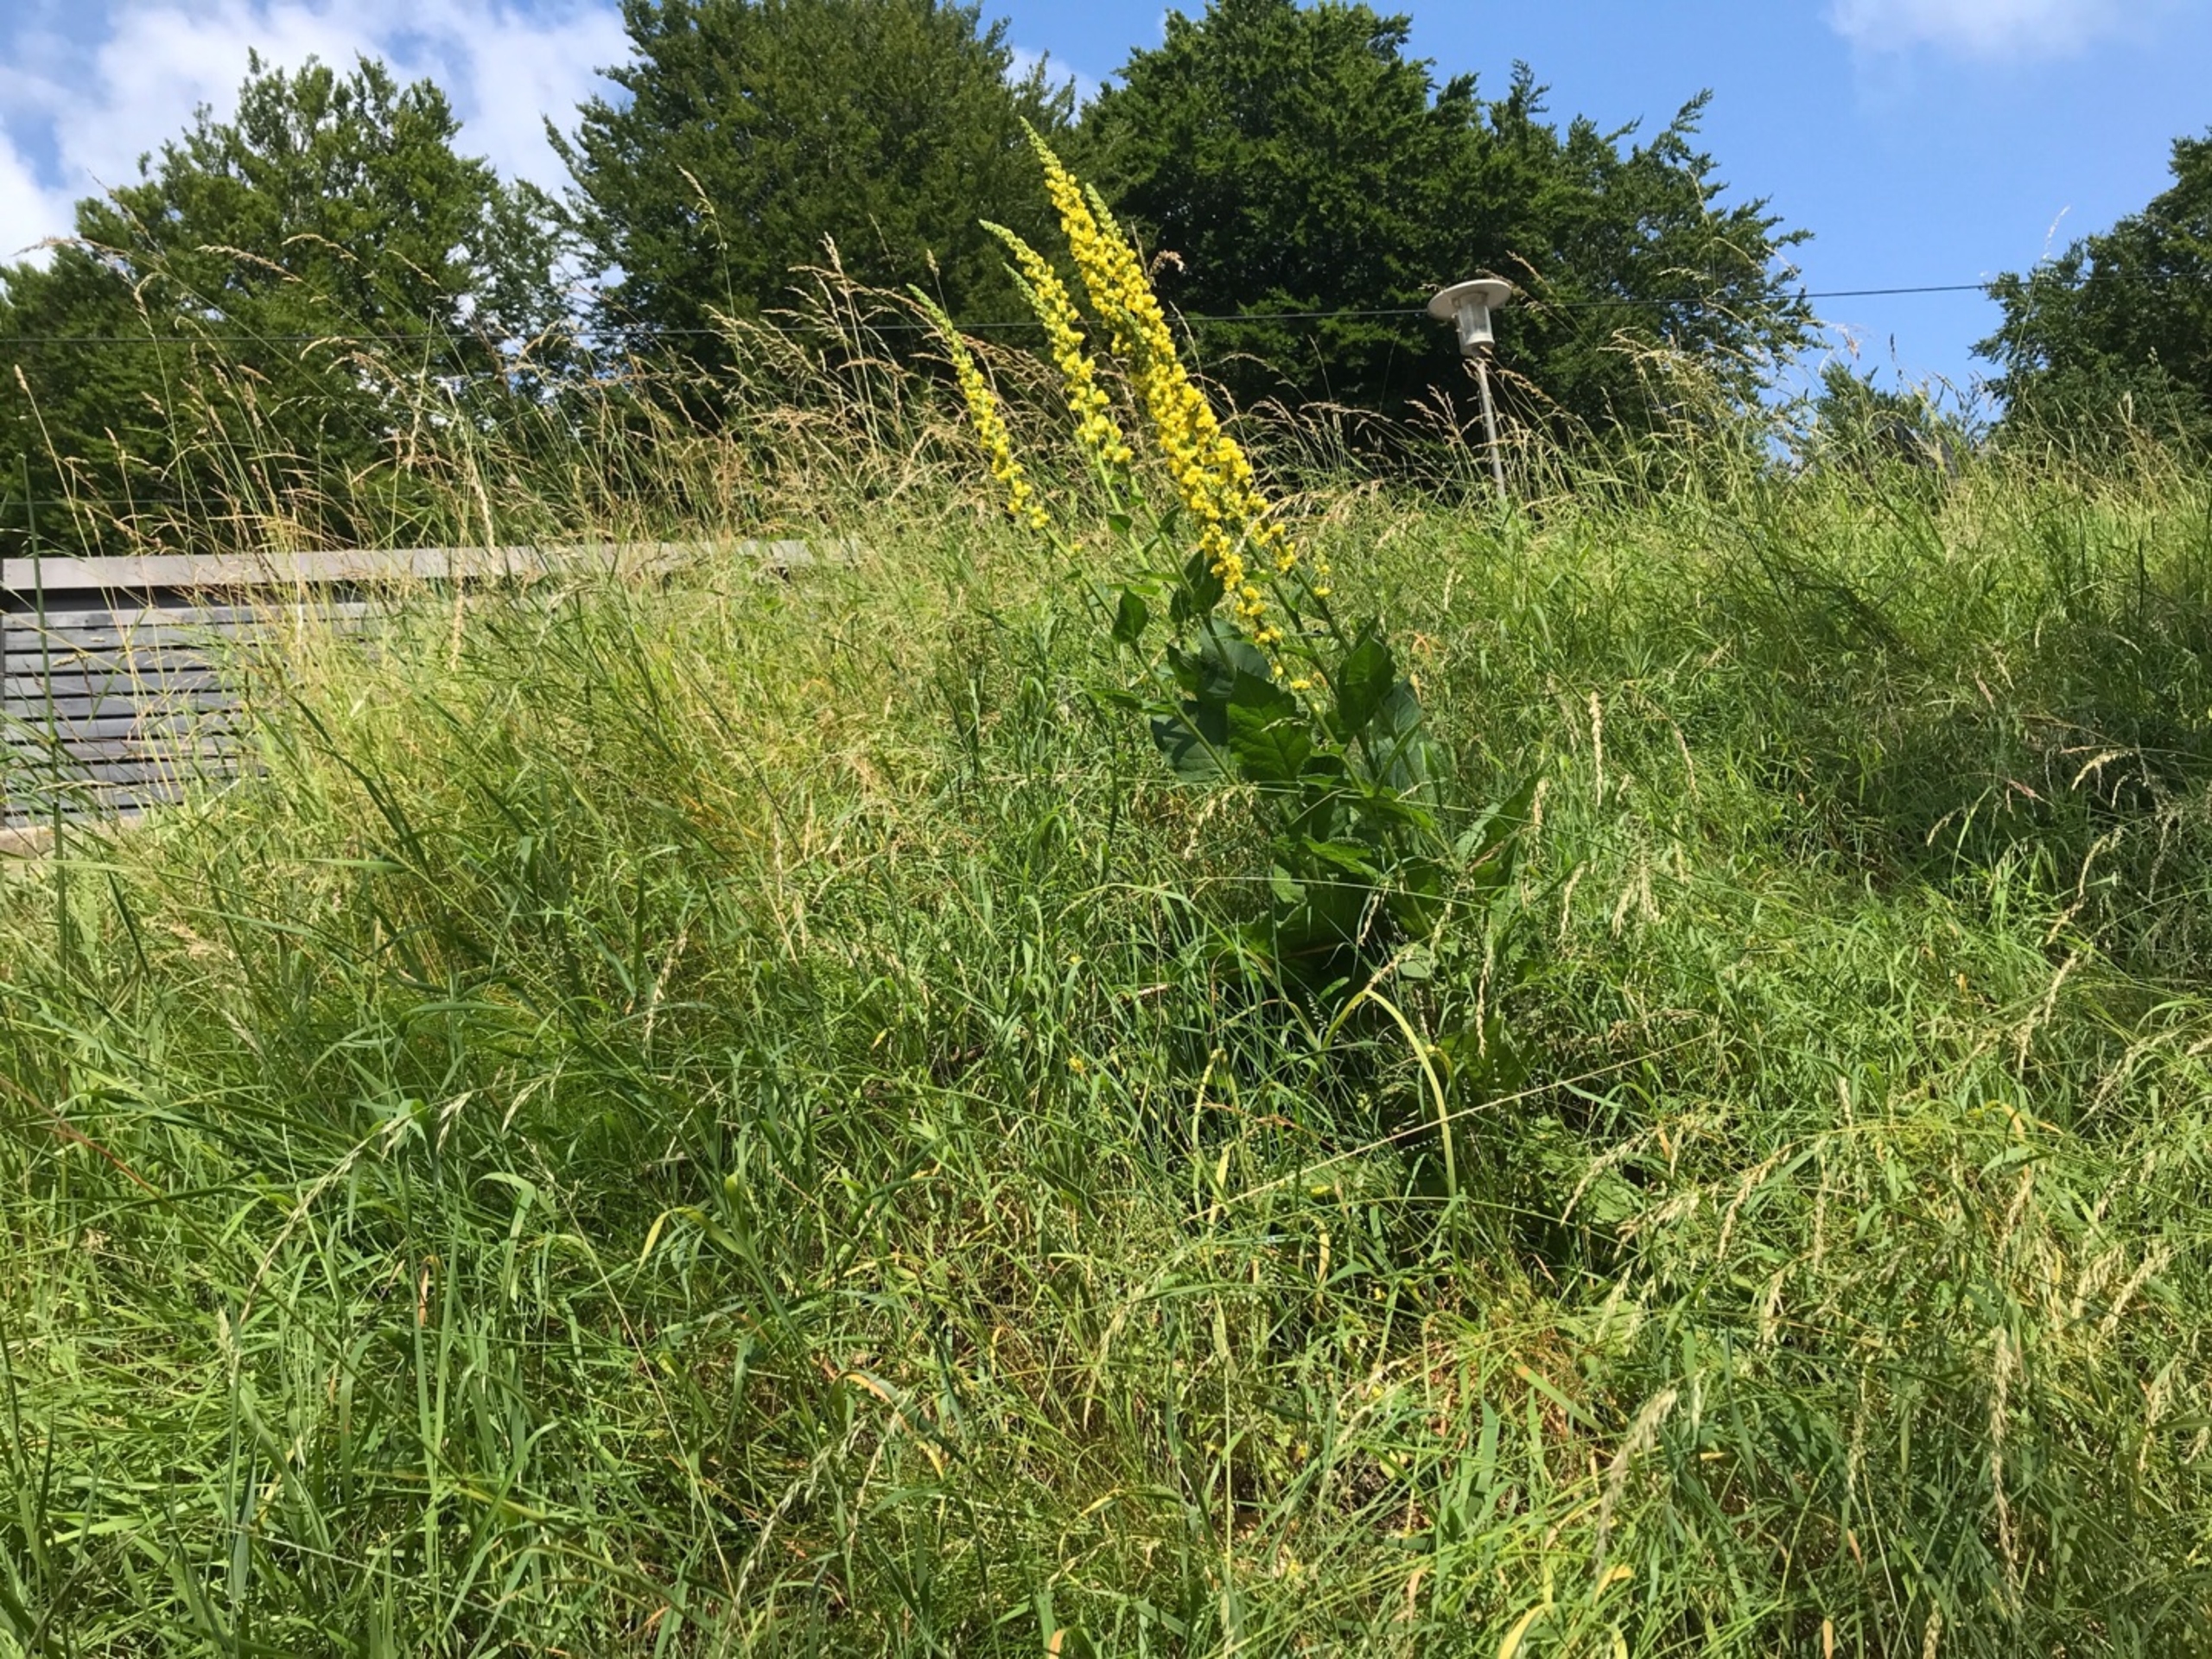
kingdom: Plantae
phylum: Tracheophyta
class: Magnoliopsida
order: Lamiales
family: Scrophulariaceae
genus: Verbascum
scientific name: Verbascum nigrum
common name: Mørk kongelys
